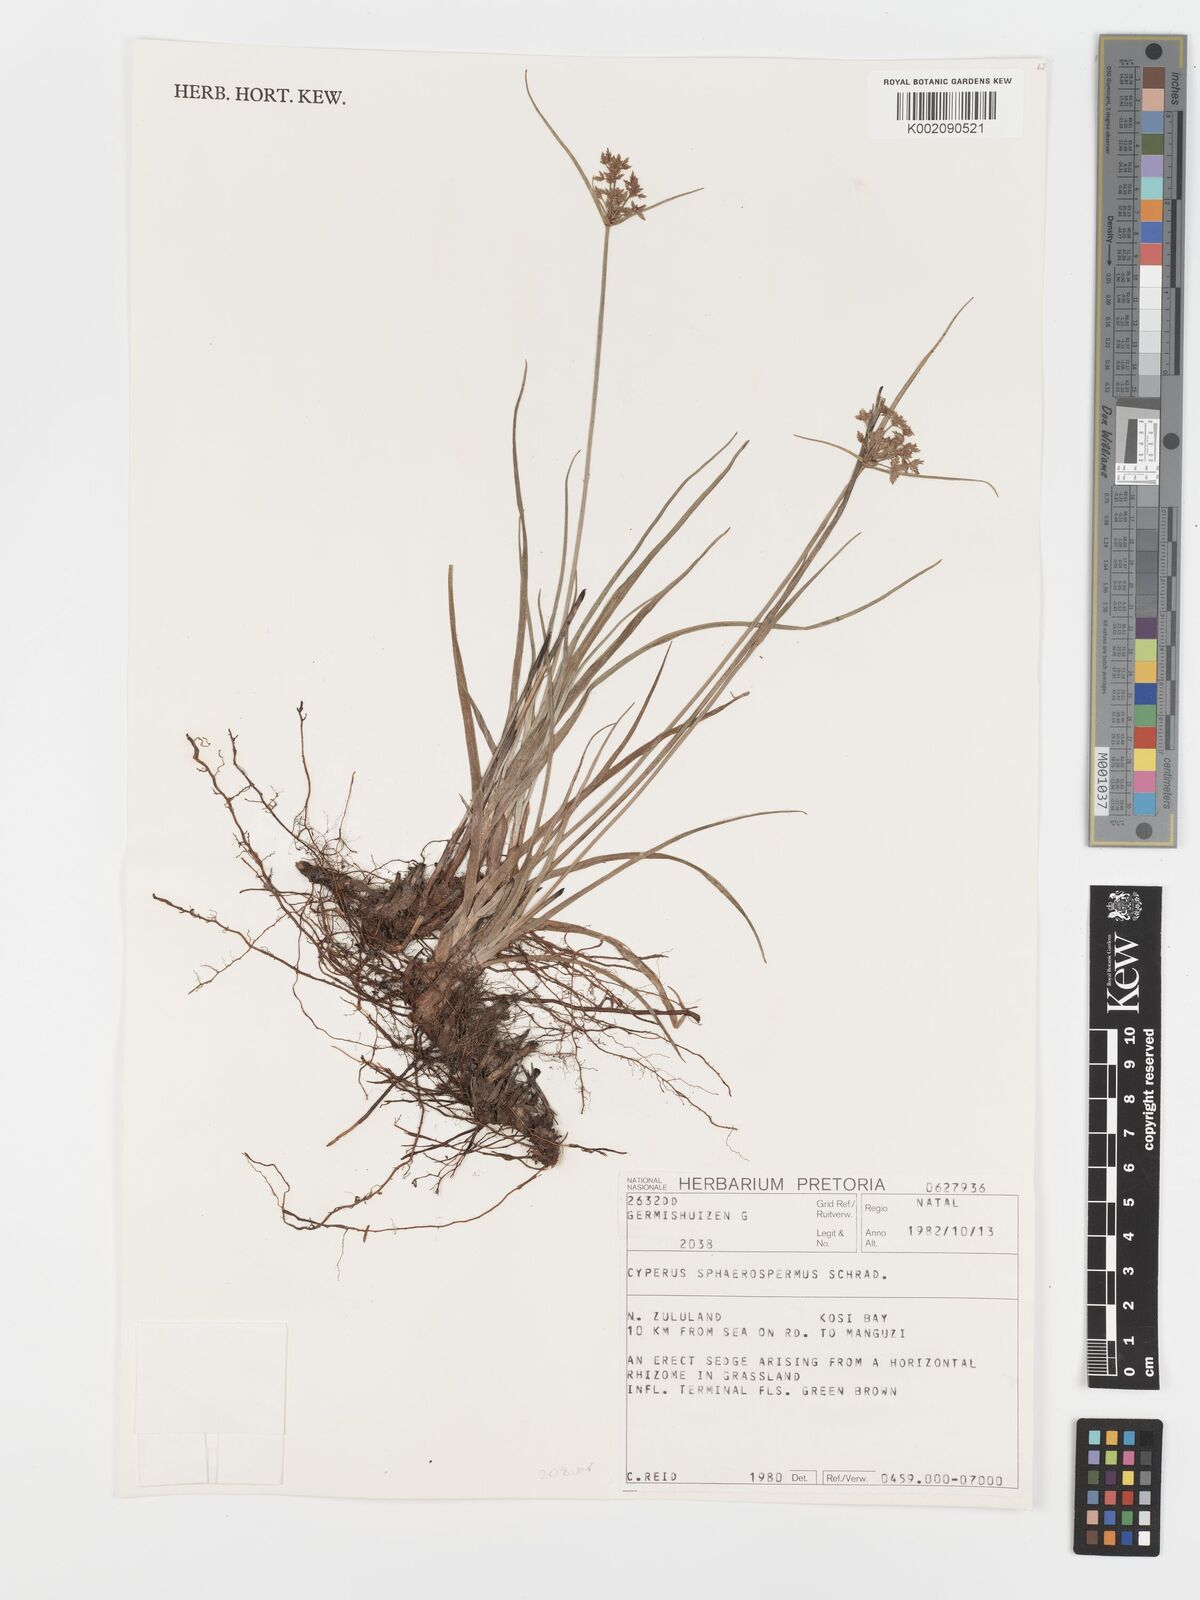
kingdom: Plantae
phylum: Tracheophyta
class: Liliopsida
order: Poales
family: Cyperaceae
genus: Cyperus
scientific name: Cyperus sphaerospermus
